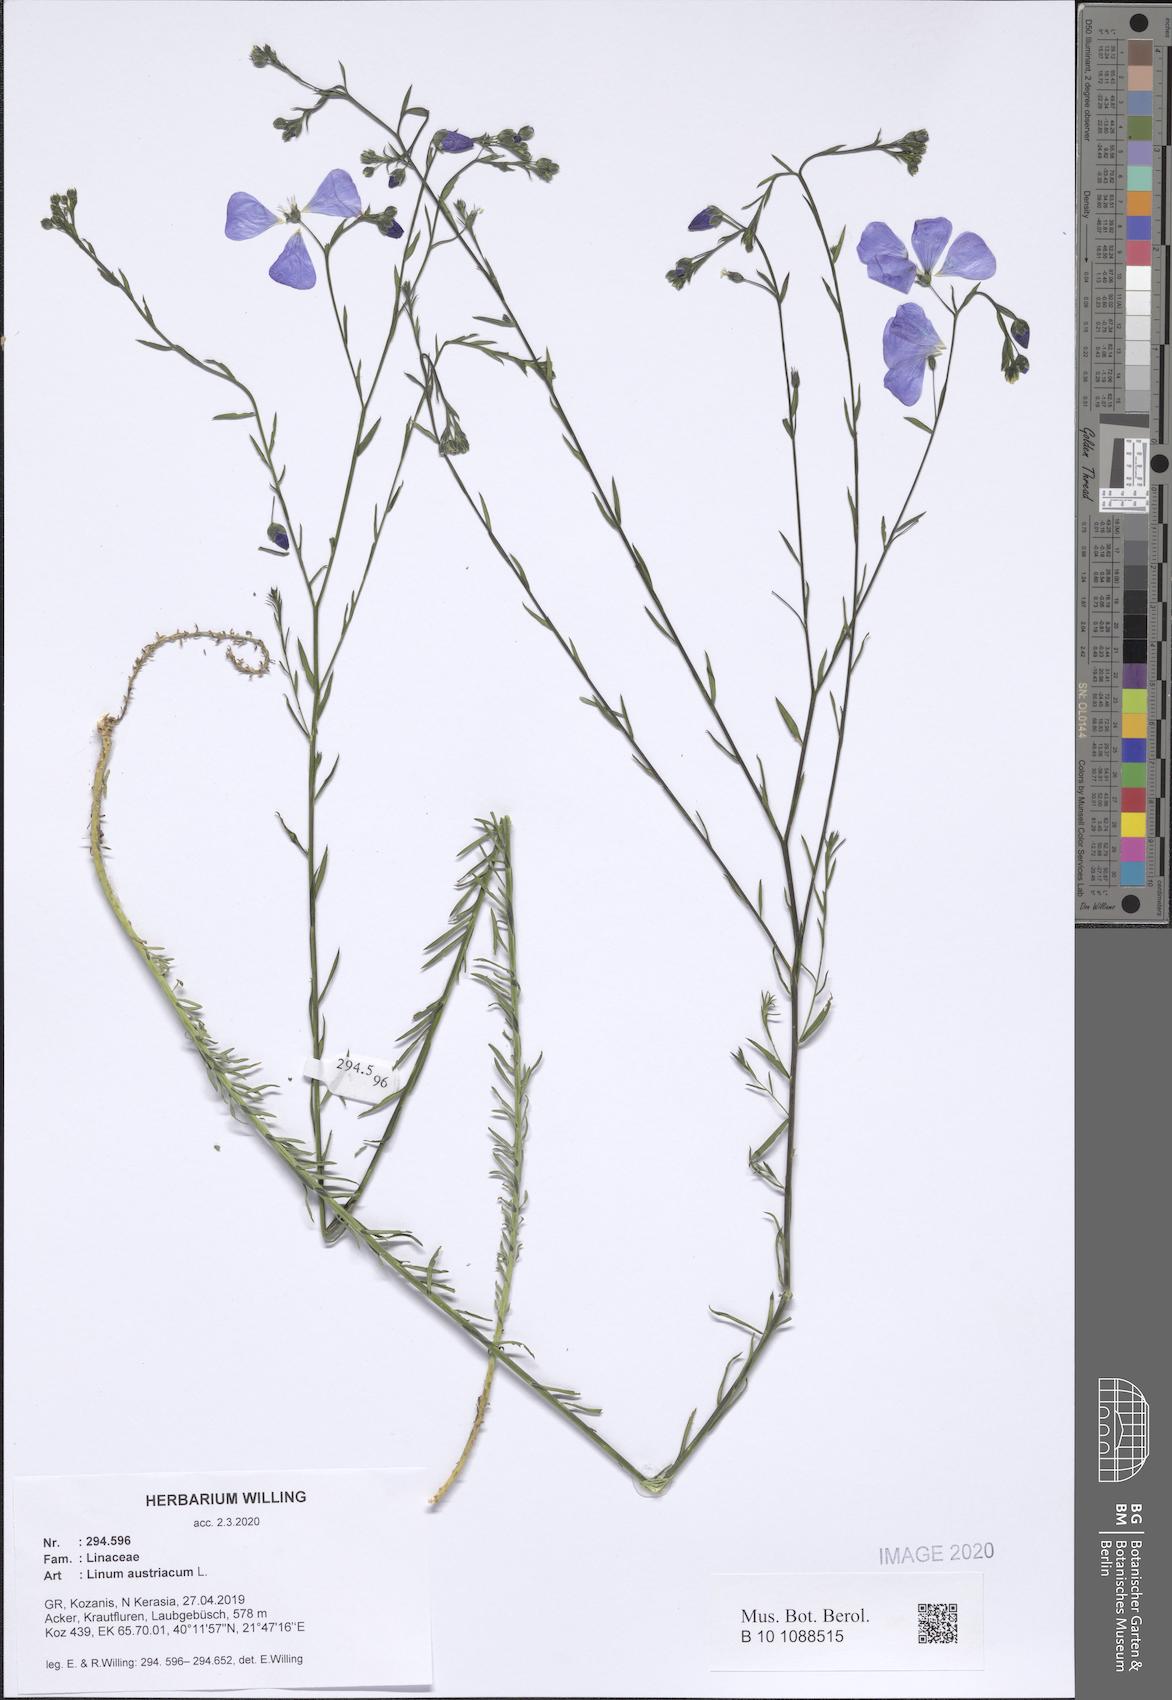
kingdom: Plantae
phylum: Tracheophyta
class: Magnoliopsida
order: Malpighiales
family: Linaceae
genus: Linum
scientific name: Linum austriacum
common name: Austrian flax
